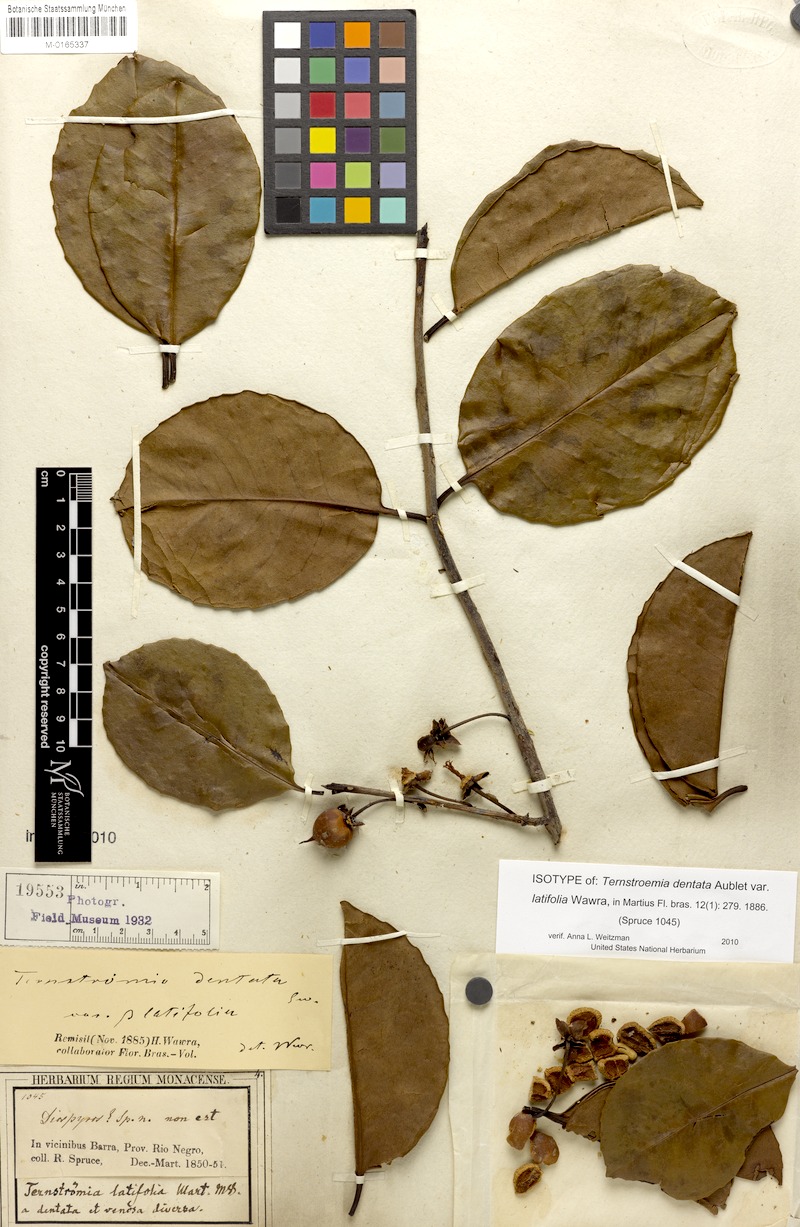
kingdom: Plantae
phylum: Tracheophyta
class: Magnoliopsida
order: Ericales
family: Pentaphylacaceae
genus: Ternstroemia
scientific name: Ternstroemia dentata
